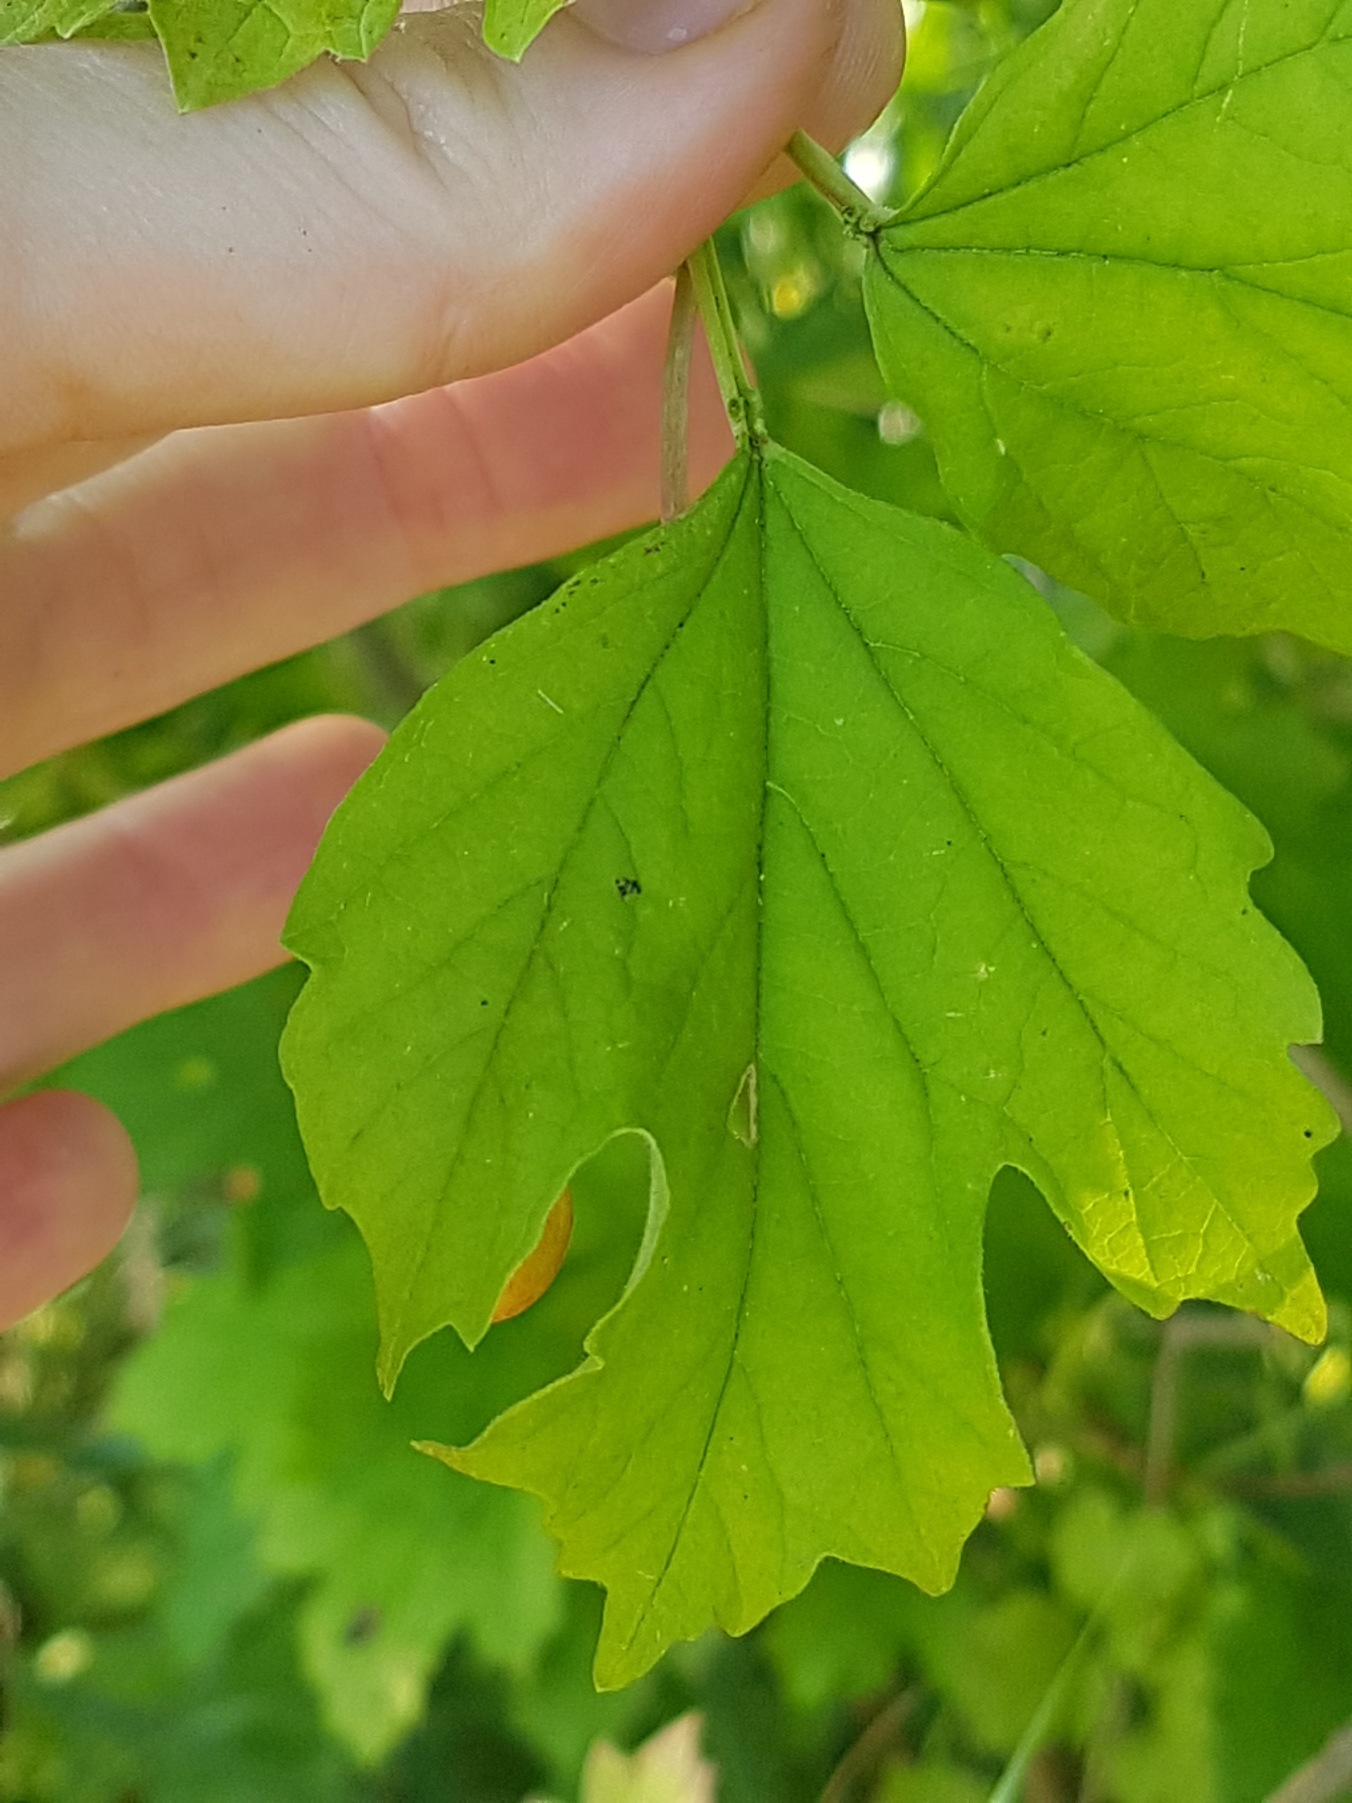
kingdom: Plantae
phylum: Tracheophyta
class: Magnoliopsida
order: Dipsacales
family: Viburnaceae
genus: Viburnum
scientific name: Viburnum opulus
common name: Kvalkved
